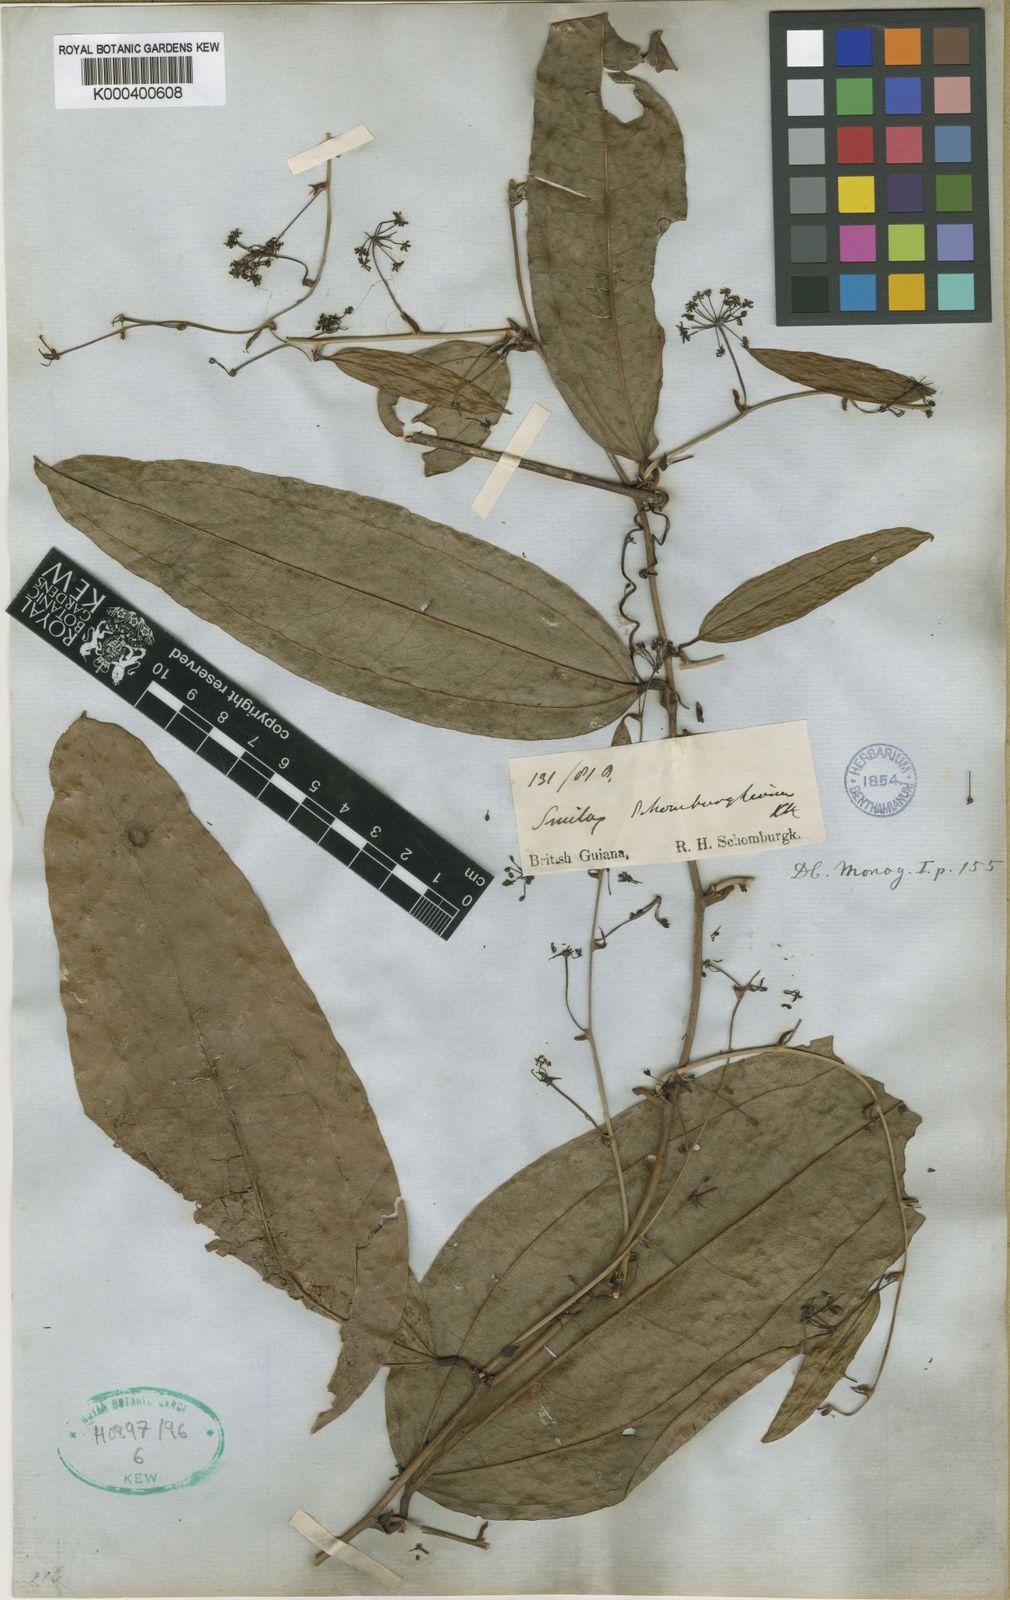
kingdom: Plantae
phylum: Tracheophyta
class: Liliopsida
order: Liliales
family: Smilacaceae
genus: Smilax
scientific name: Smilax schomburgkiana
